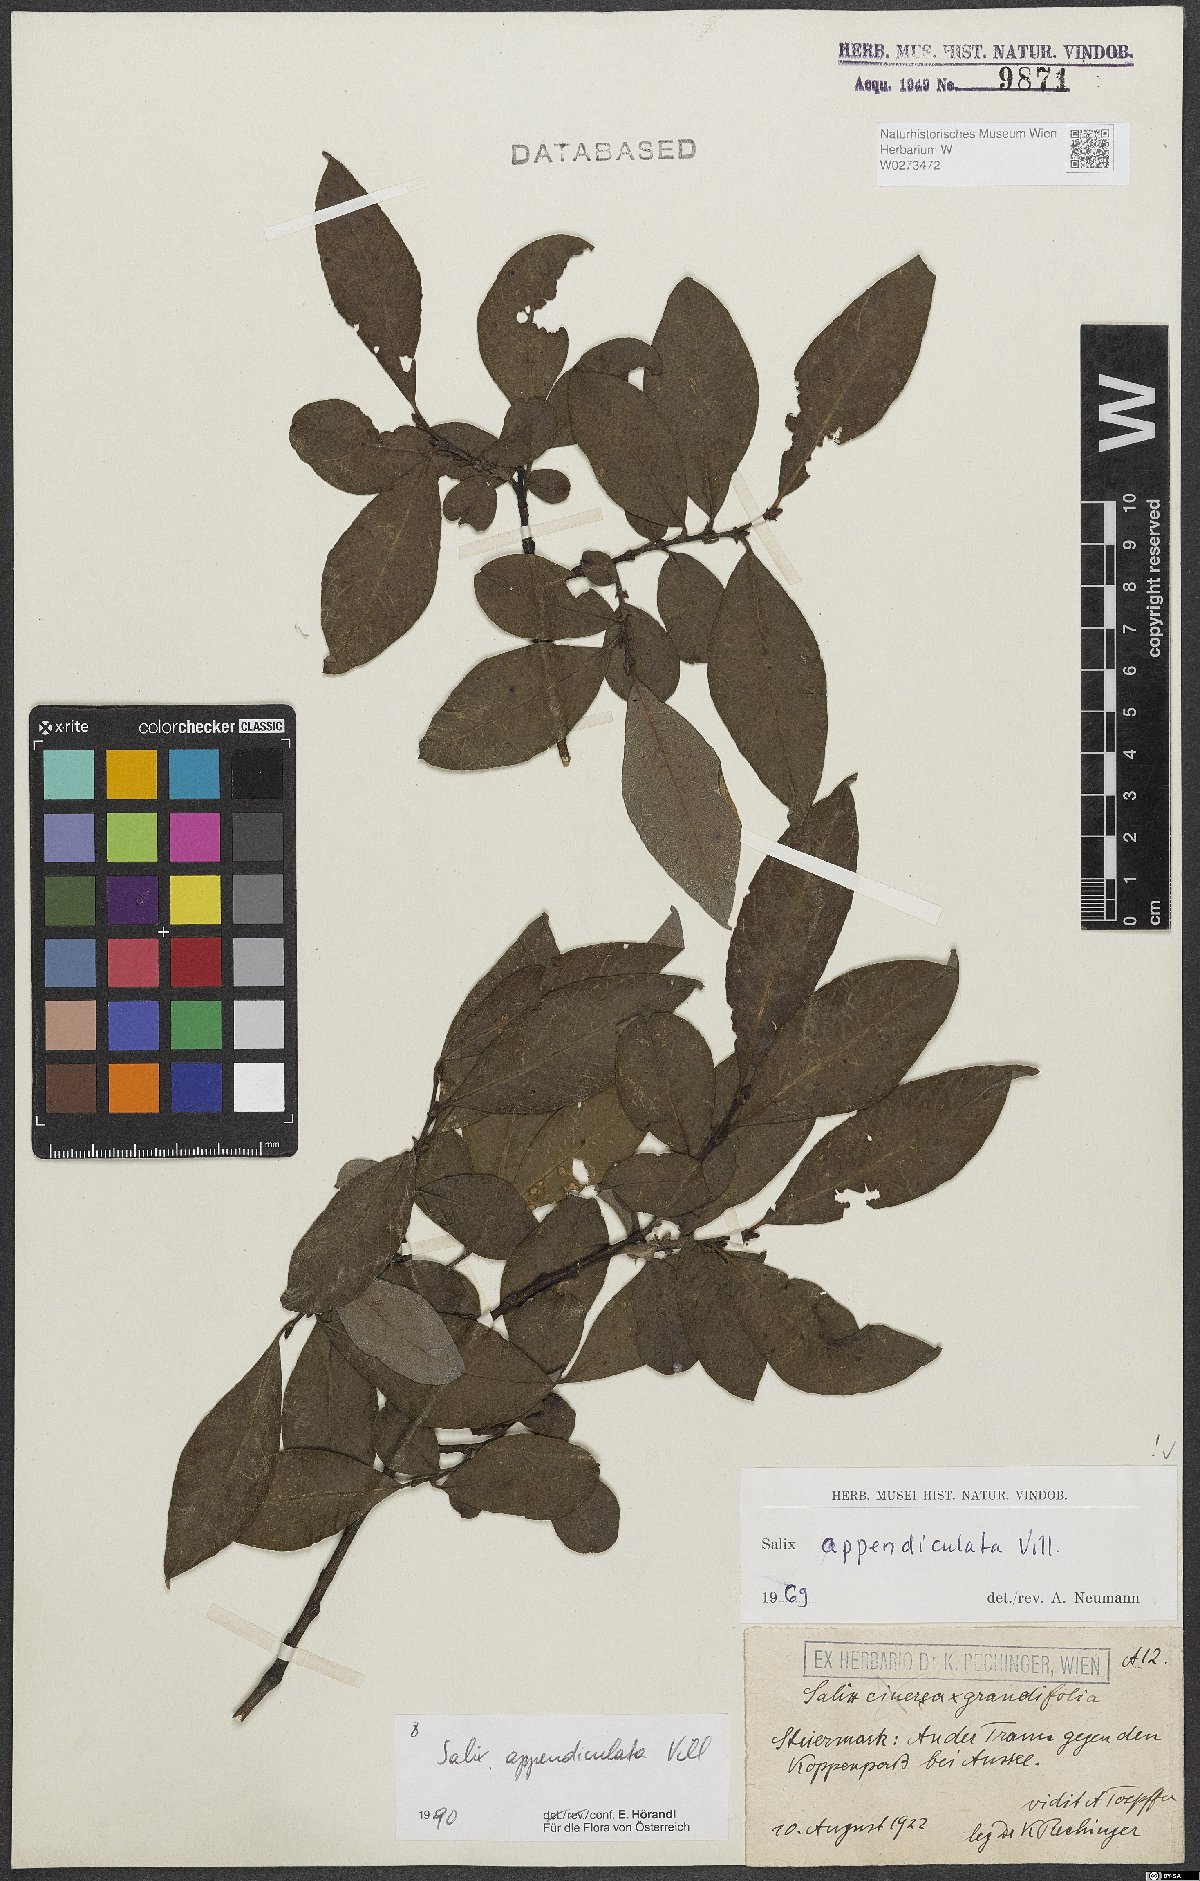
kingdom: Plantae
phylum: Tracheophyta
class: Magnoliopsida
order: Malpighiales
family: Salicaceae
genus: Salix
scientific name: Salix appendiculata
